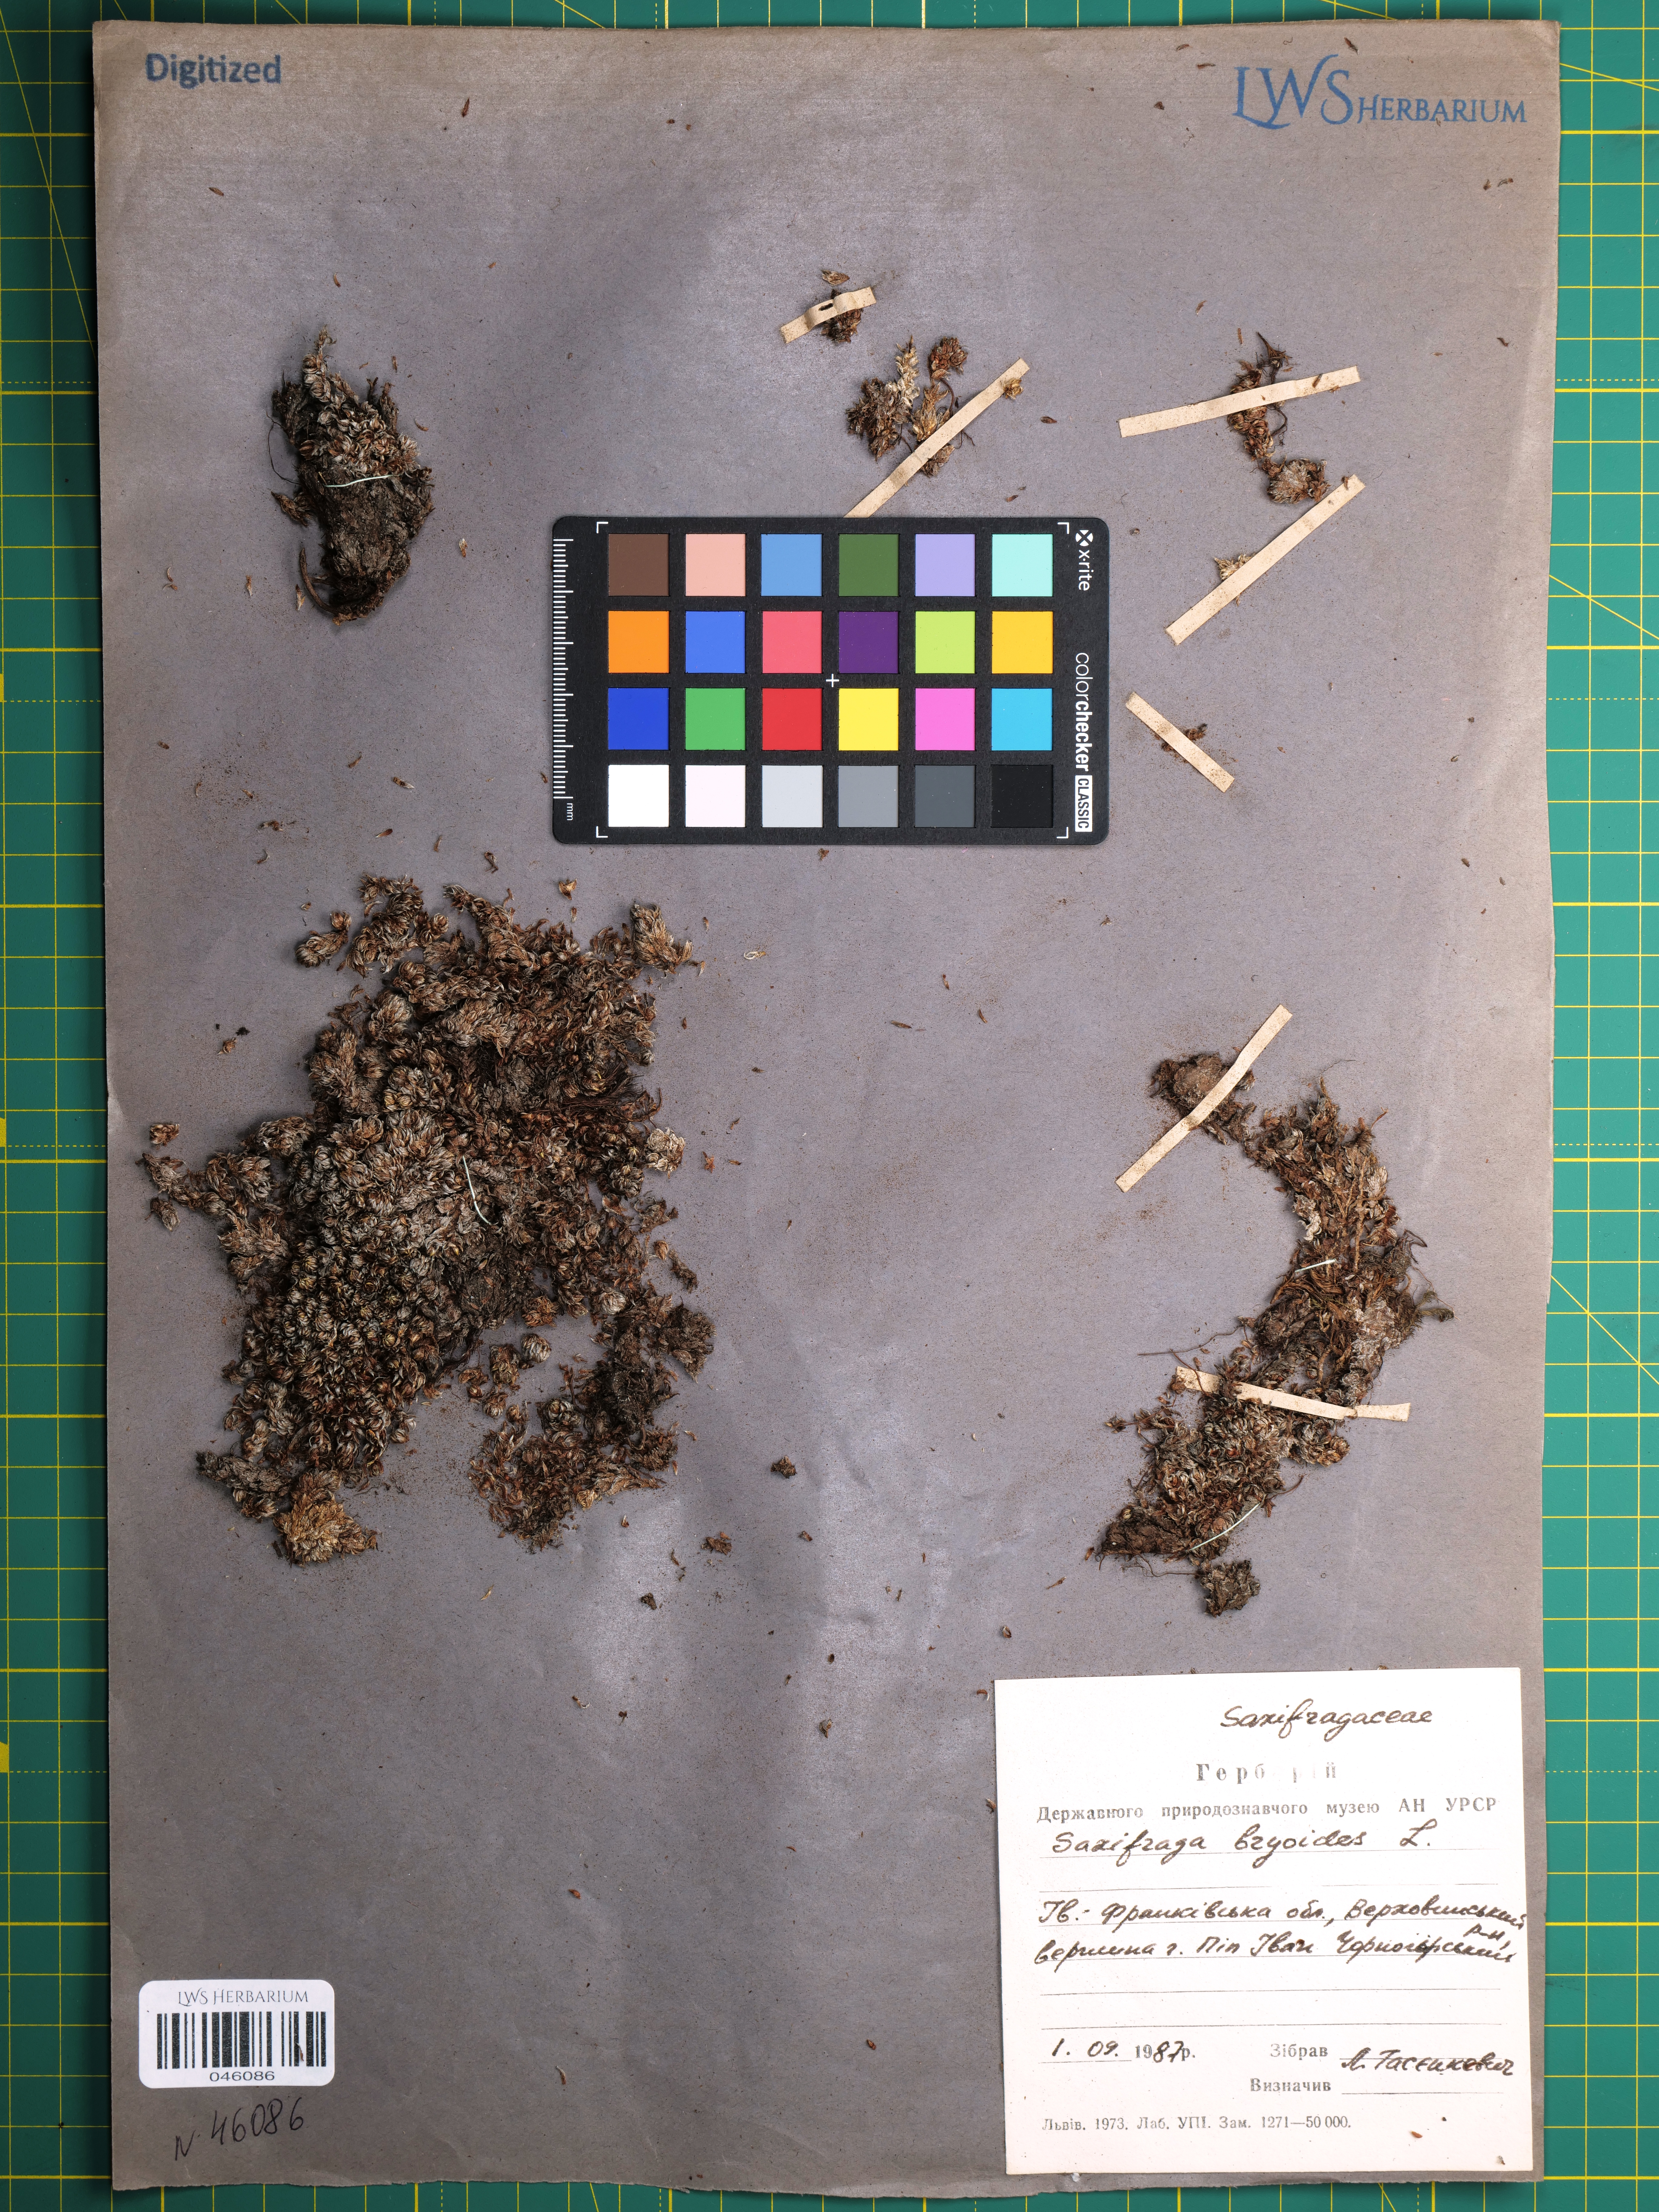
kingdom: Plantae
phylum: Tracheophyta
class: Magnoliopsida
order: Saxifragales
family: Saxifragaceae
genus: Saxifraga
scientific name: Saxifraga bryoides
